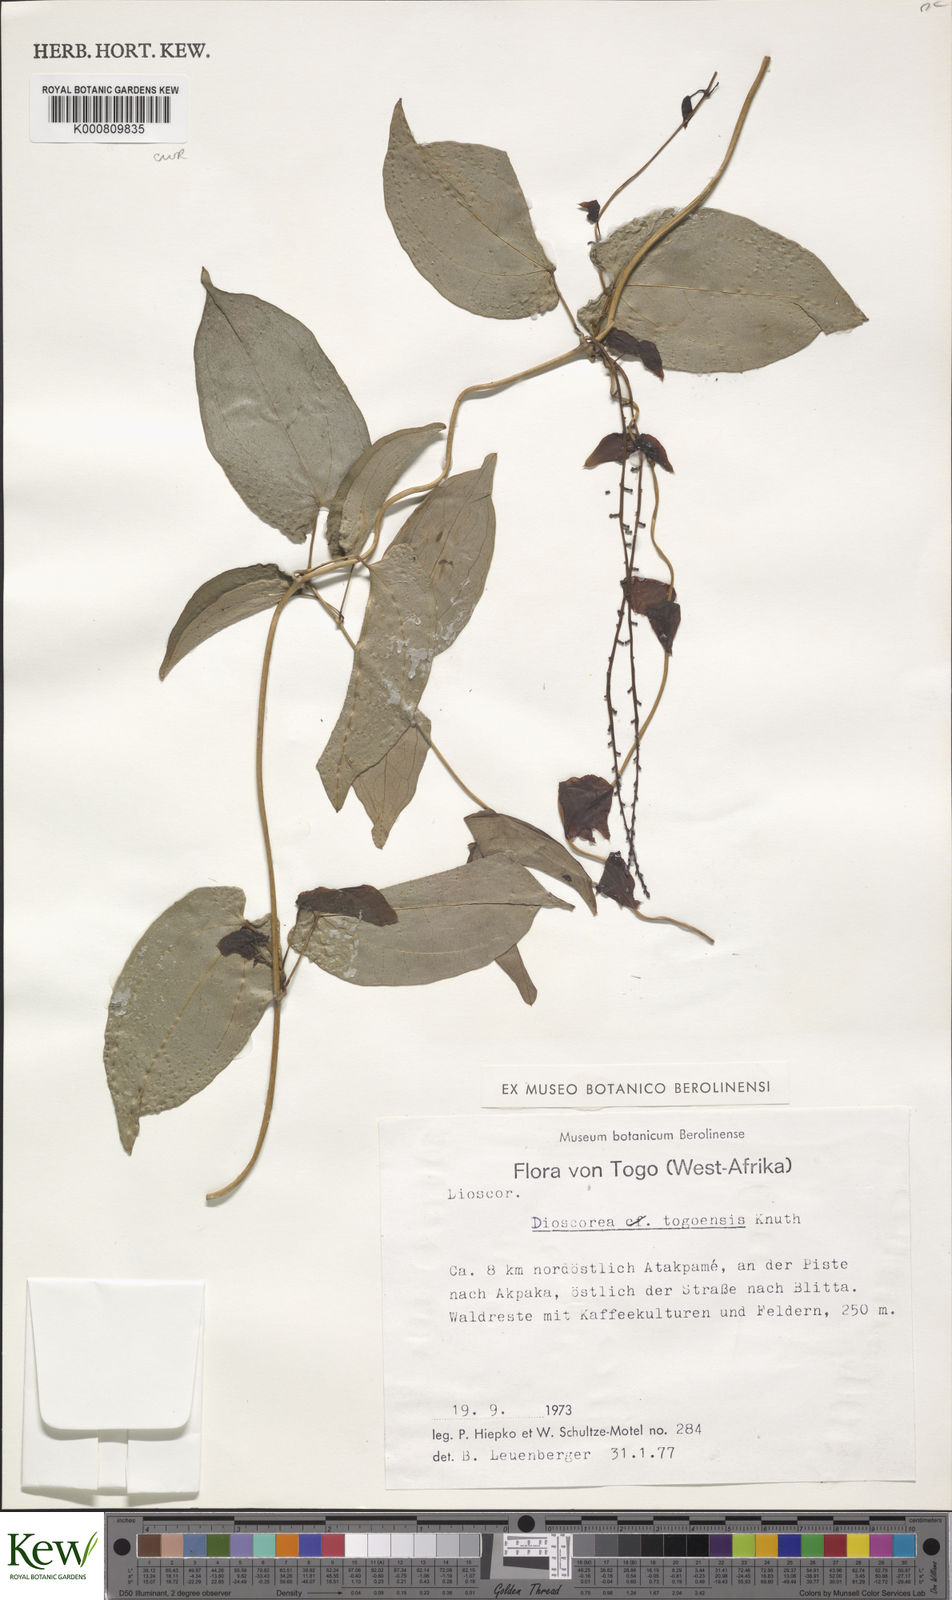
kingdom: Plantae
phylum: Tracheophyta
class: Liliopsida
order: Dioscoreales
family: Dioscoreaceae
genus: Dioscorea
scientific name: Dioscorea togoensis
